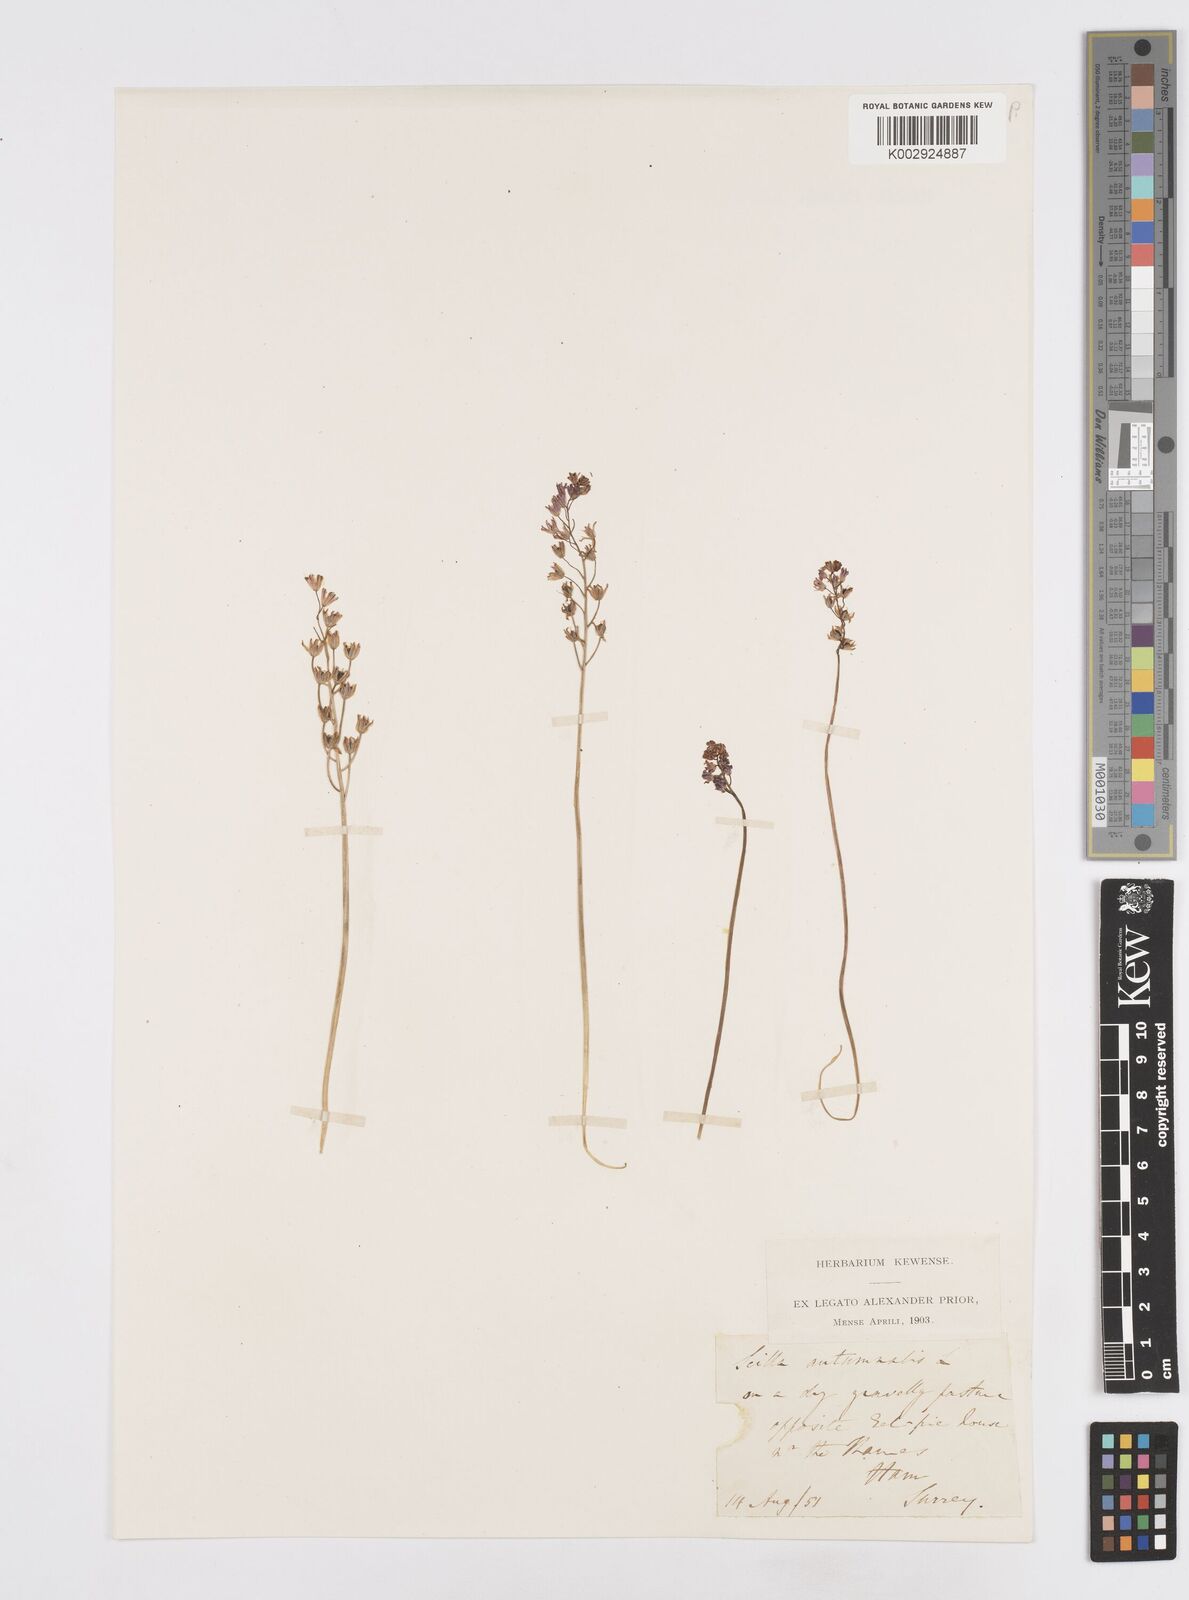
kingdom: Plantae
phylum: Tracheophyta
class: Liliopsida
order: Asparagales
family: Asparagaceae
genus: Prospero
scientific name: Prospero autumnale
